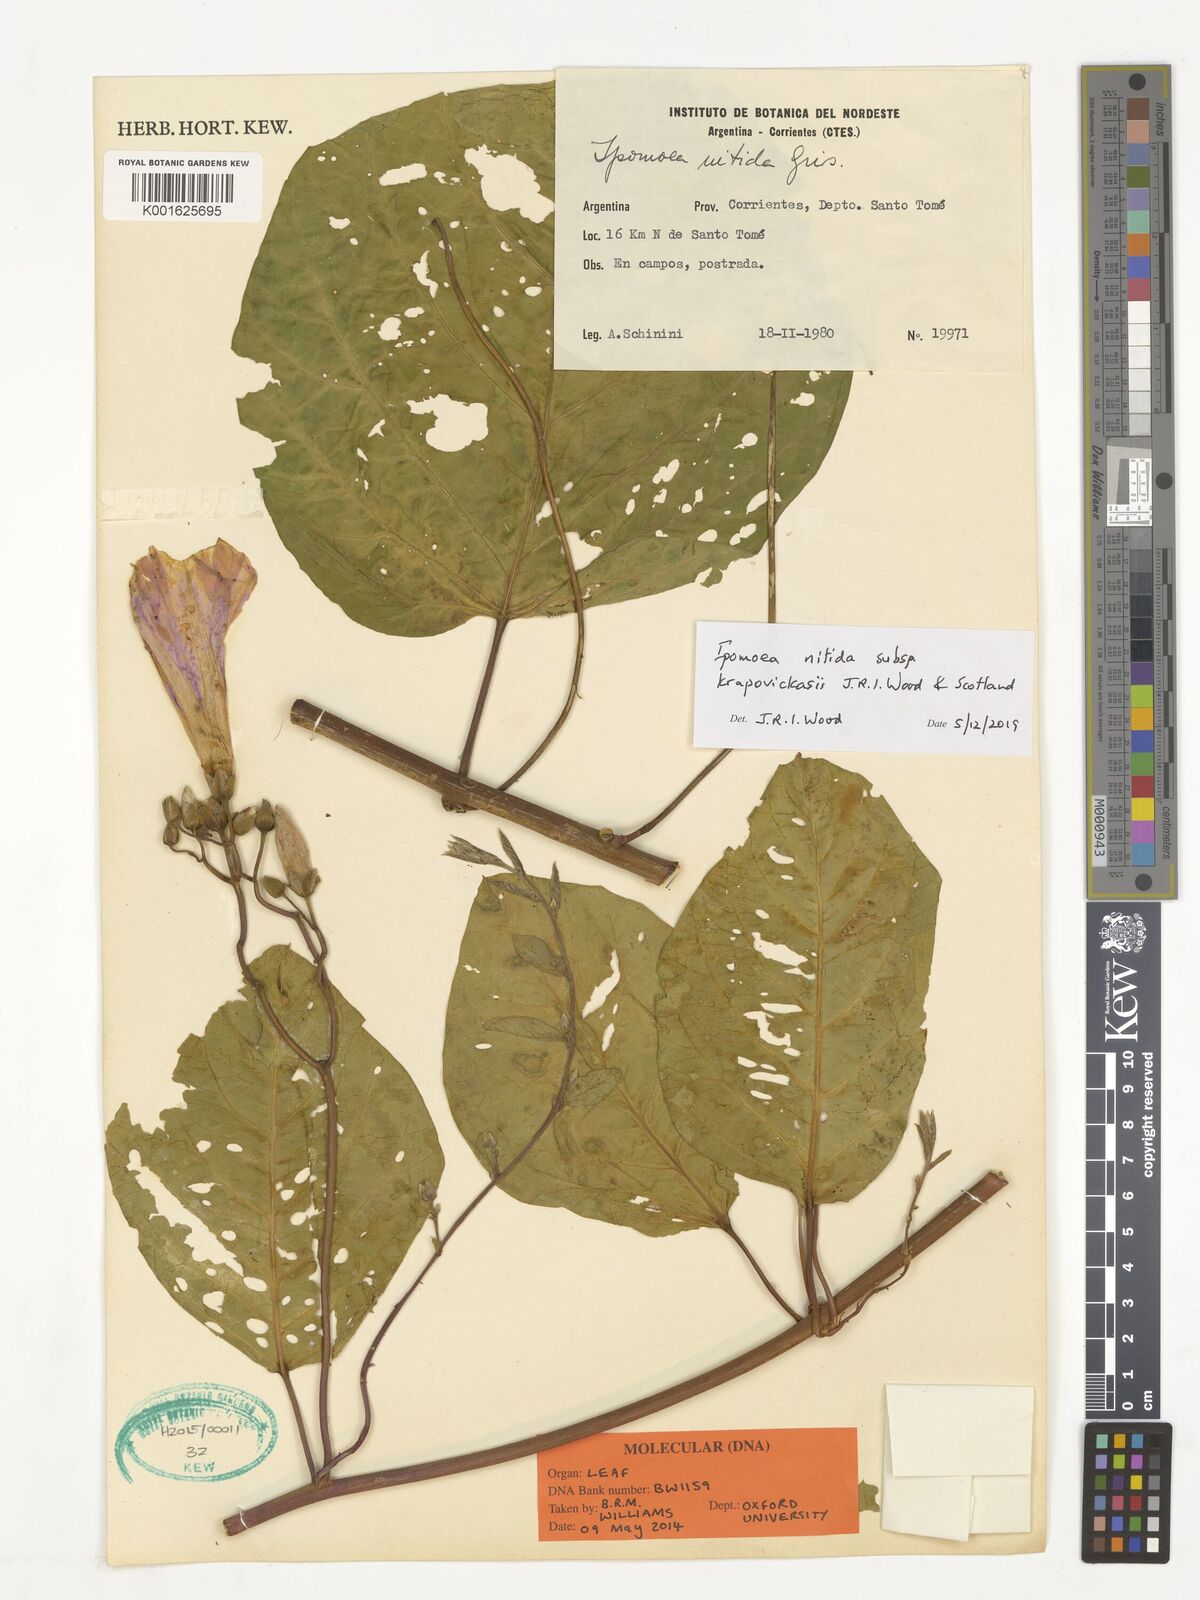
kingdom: Plantae
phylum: Tracheophyta
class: Magnoliopsida
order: Solanales
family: Convolvulaceae
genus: Ipomoea
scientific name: Ipomoea nitida
